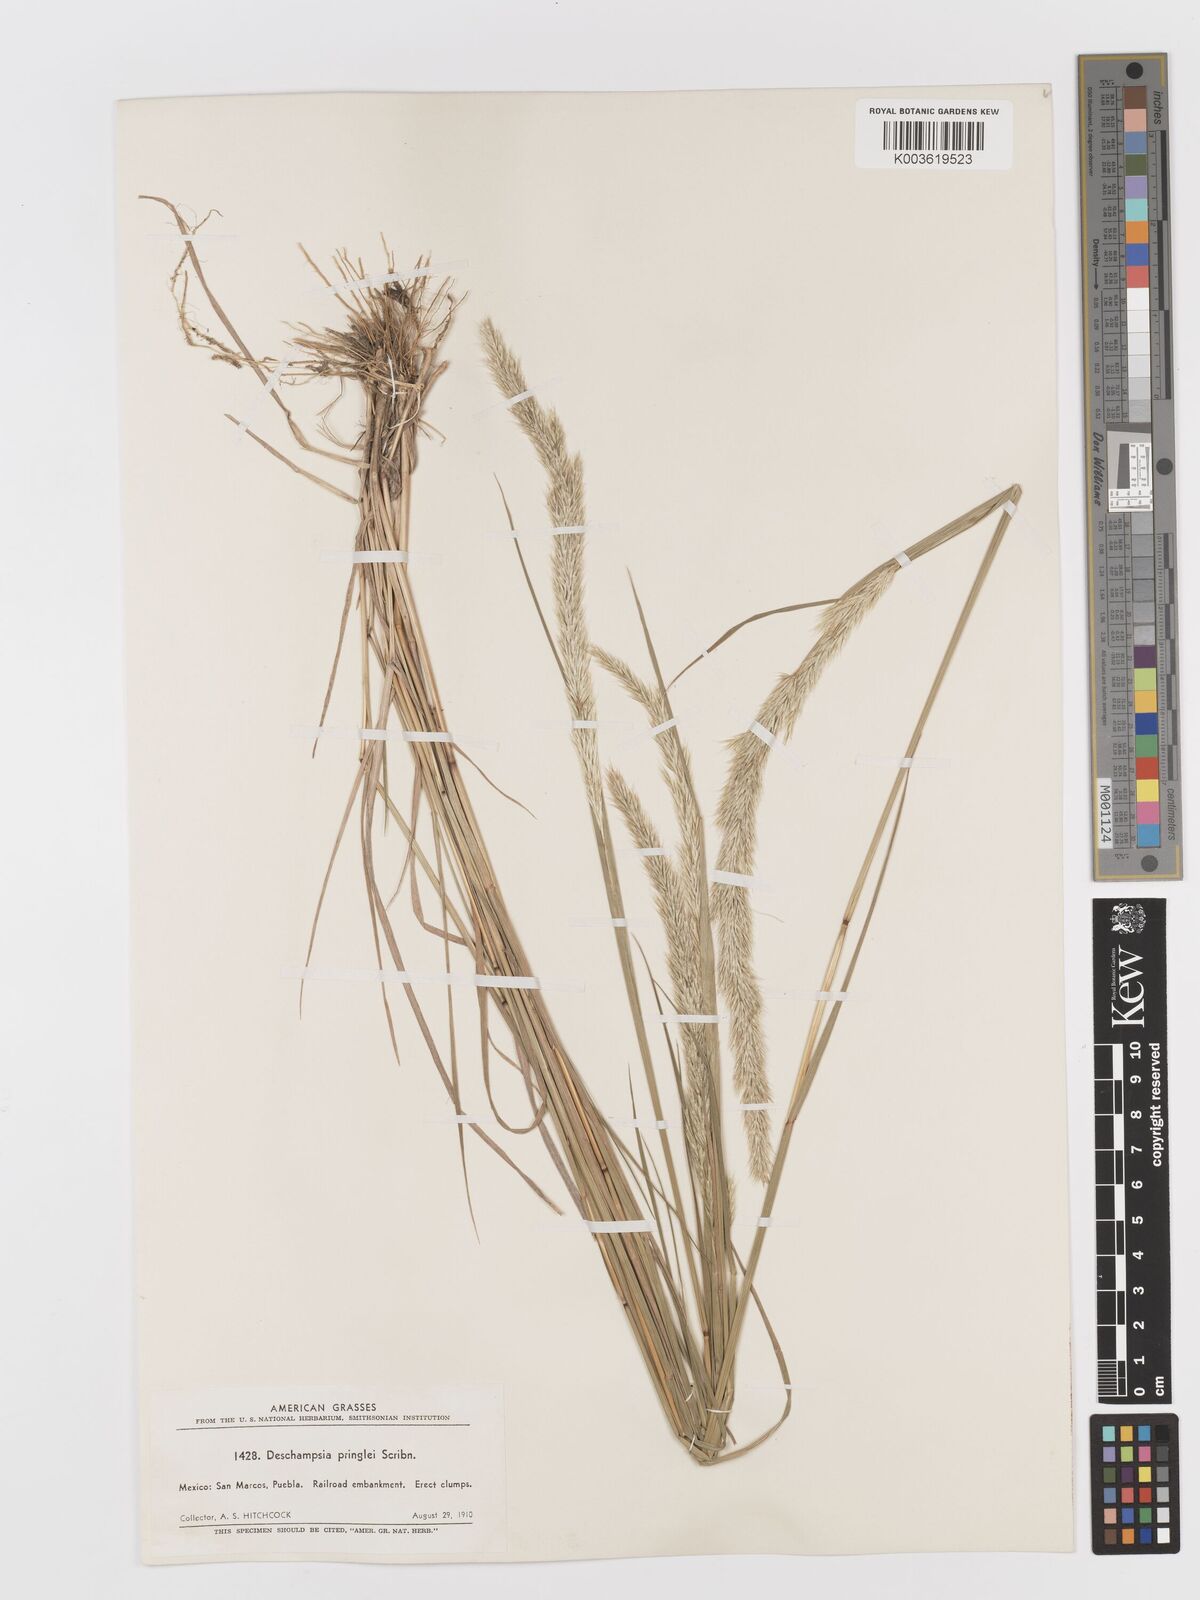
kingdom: Plantae
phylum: Tracheophyta
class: Liliopsida
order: Poales
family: Poaceae
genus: Peyritschia
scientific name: Peyritschia pringlei
